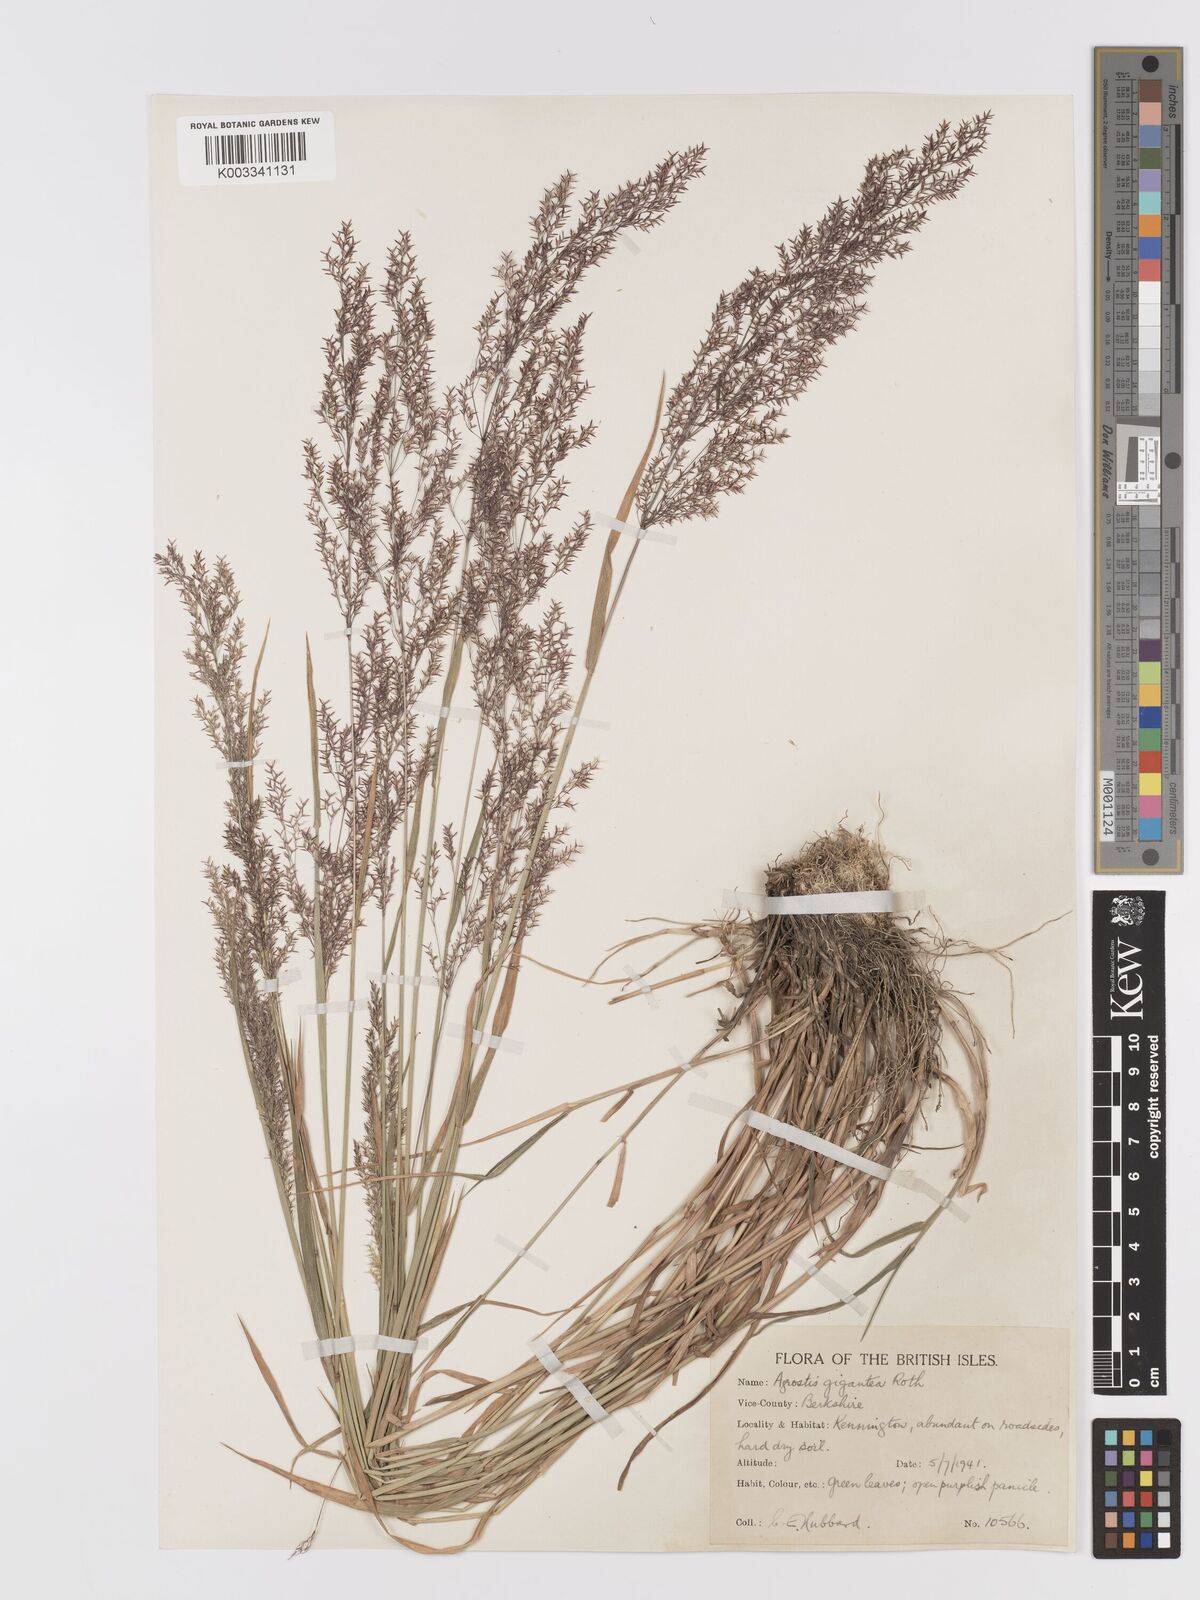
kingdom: Plantae
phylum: Tracheophyta
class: Liliopsida
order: Poales
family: Poaceae
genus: Agrostis
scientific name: Agrostis gigantea
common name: Black bent
